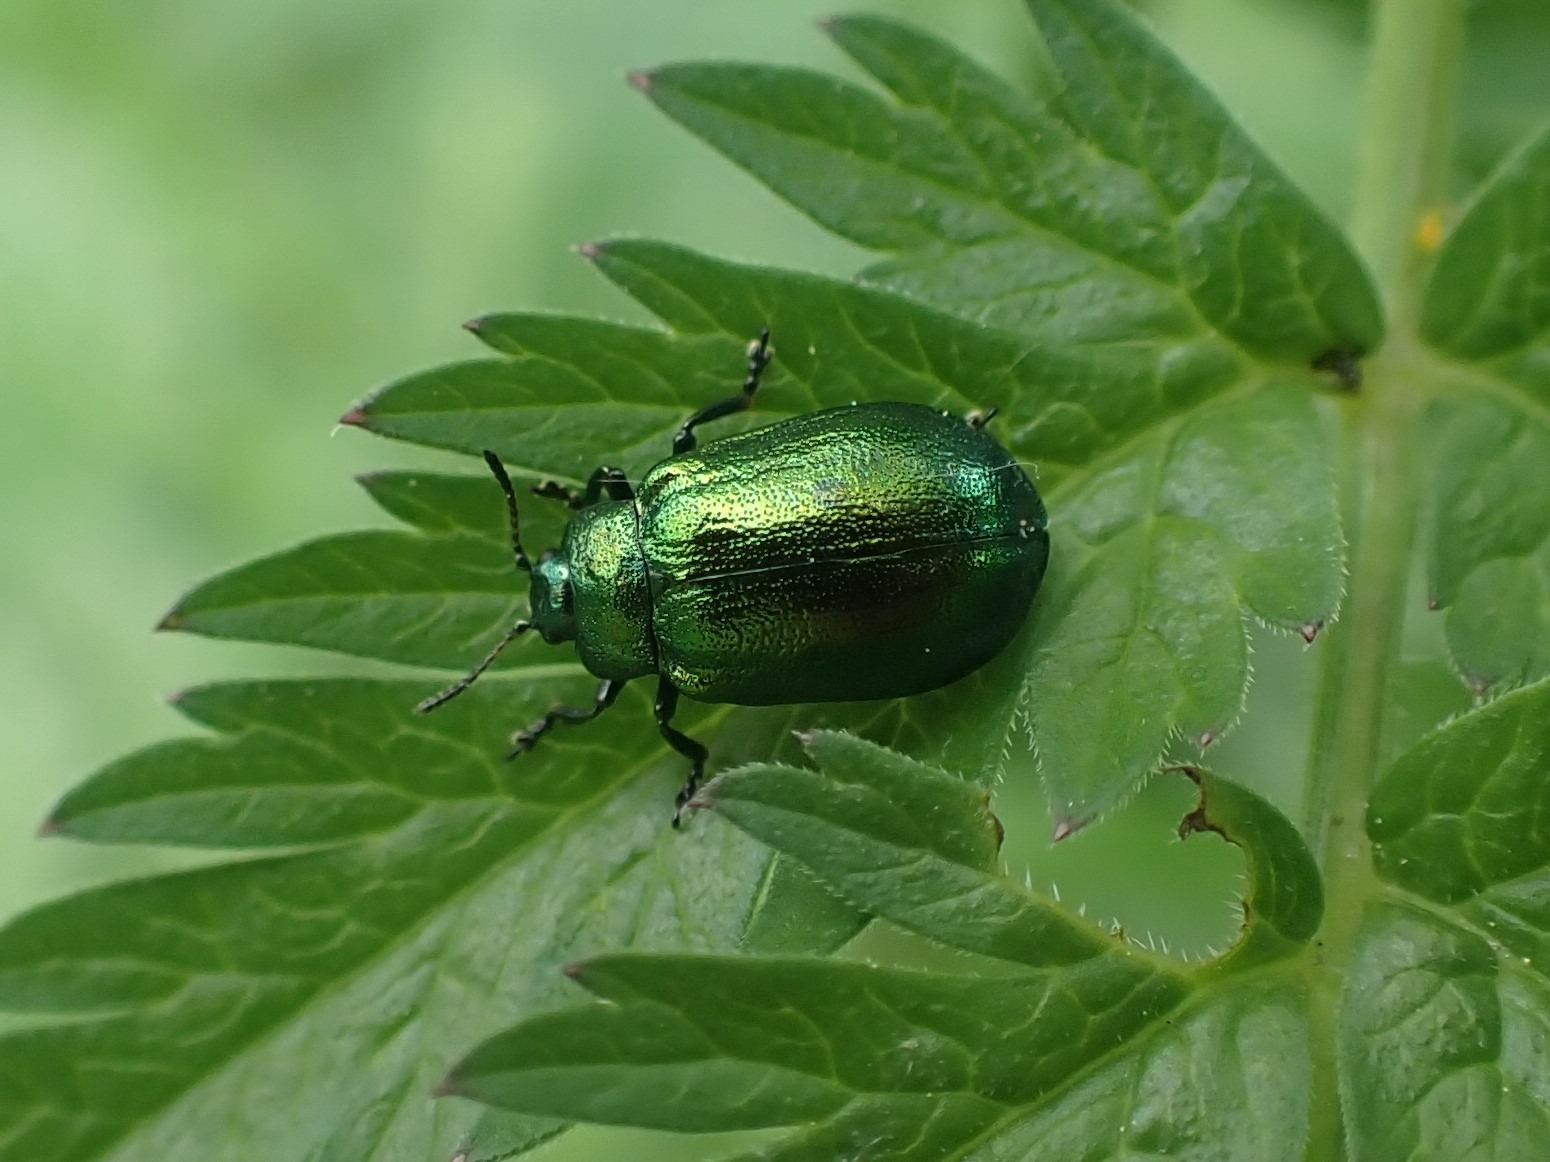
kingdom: Animalia
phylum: Arthropoda
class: Insecta
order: Coleoptera
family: Chrysomelidae
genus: Plagiosterna
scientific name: Plagiosterna aenea
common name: Blågrøn ellebladbille
